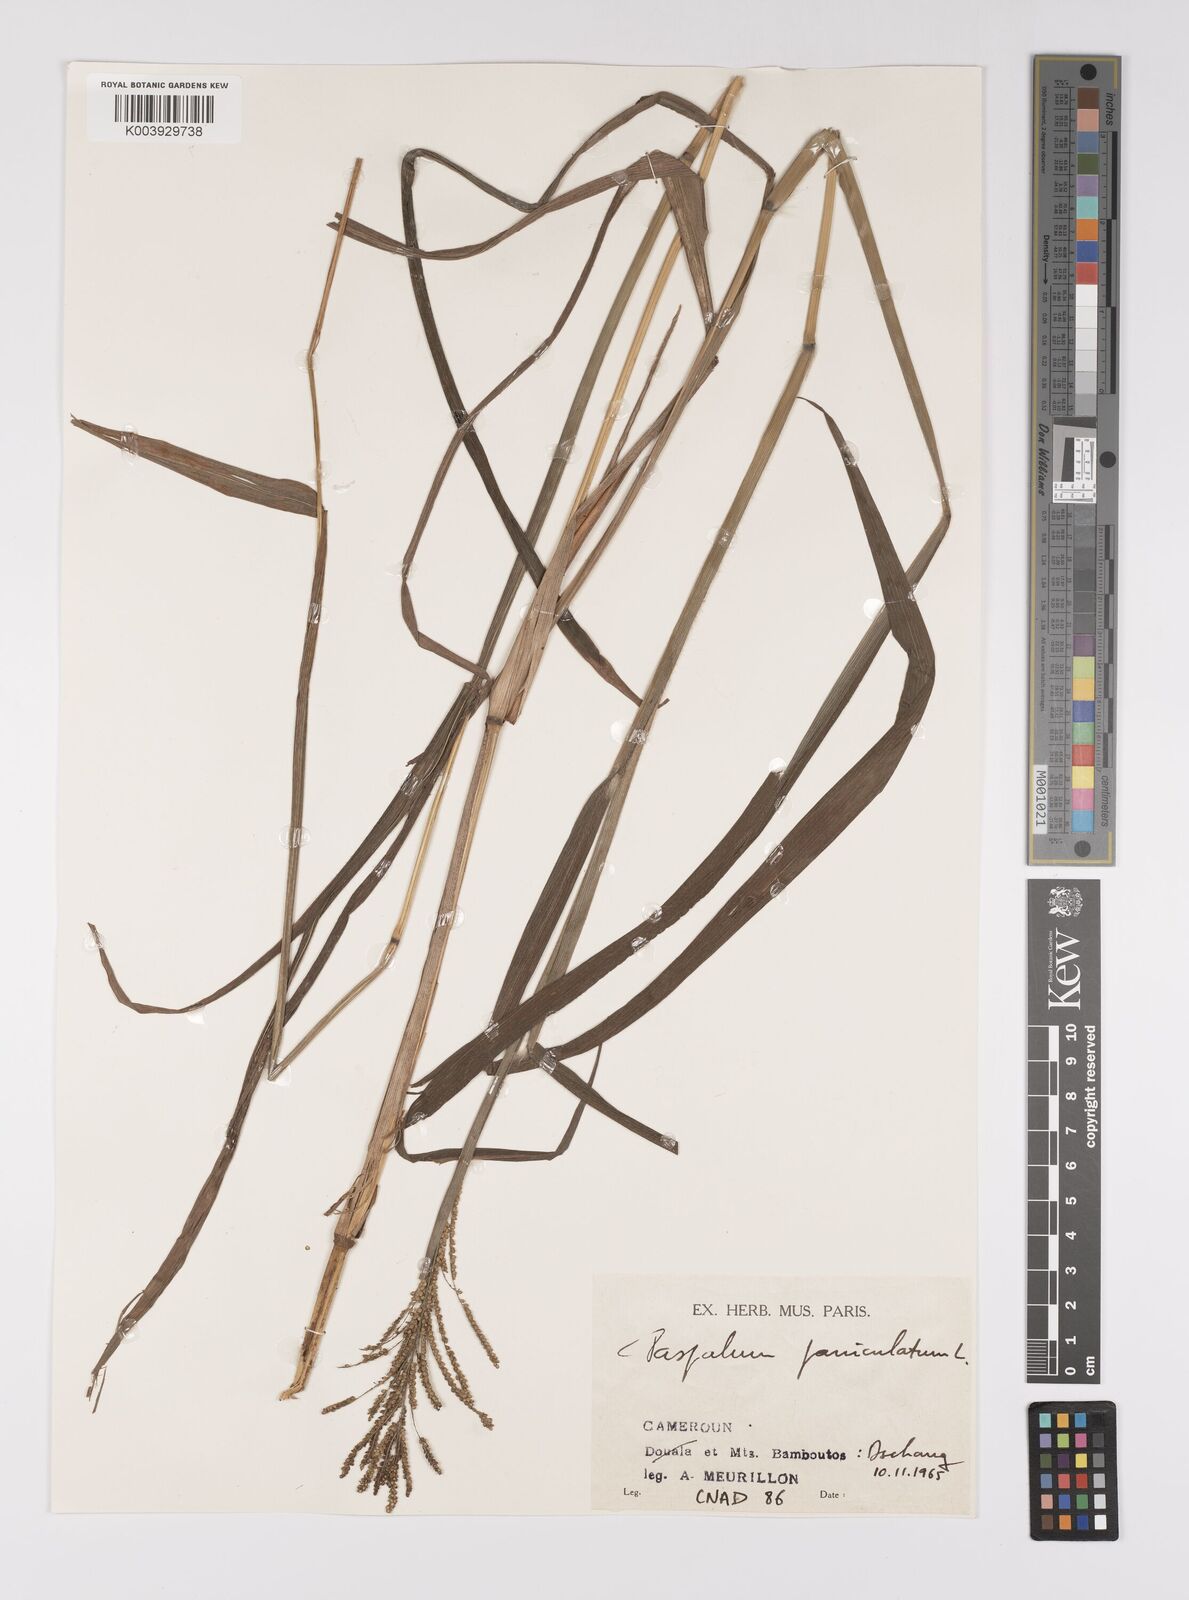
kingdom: Plantae
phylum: Tracheophyta
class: Liliopsida
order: Poales
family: Poaceae
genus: Paspalum
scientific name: Paspalum paniculatum
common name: Arrocillo
